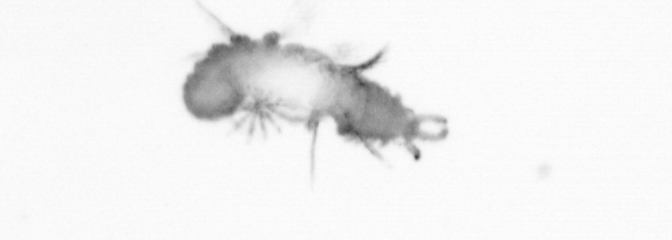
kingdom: Animalia
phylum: Annelida
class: Polychaeta
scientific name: Polychaeta
